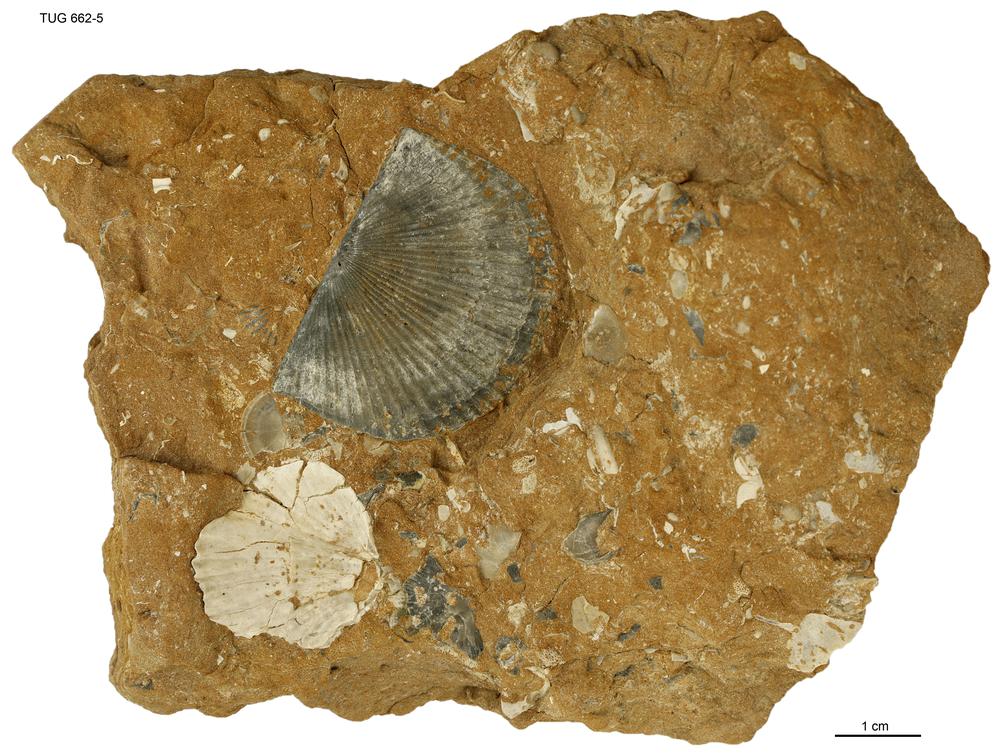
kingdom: Animalia
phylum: Brachiopoda
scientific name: Brachiopoda
